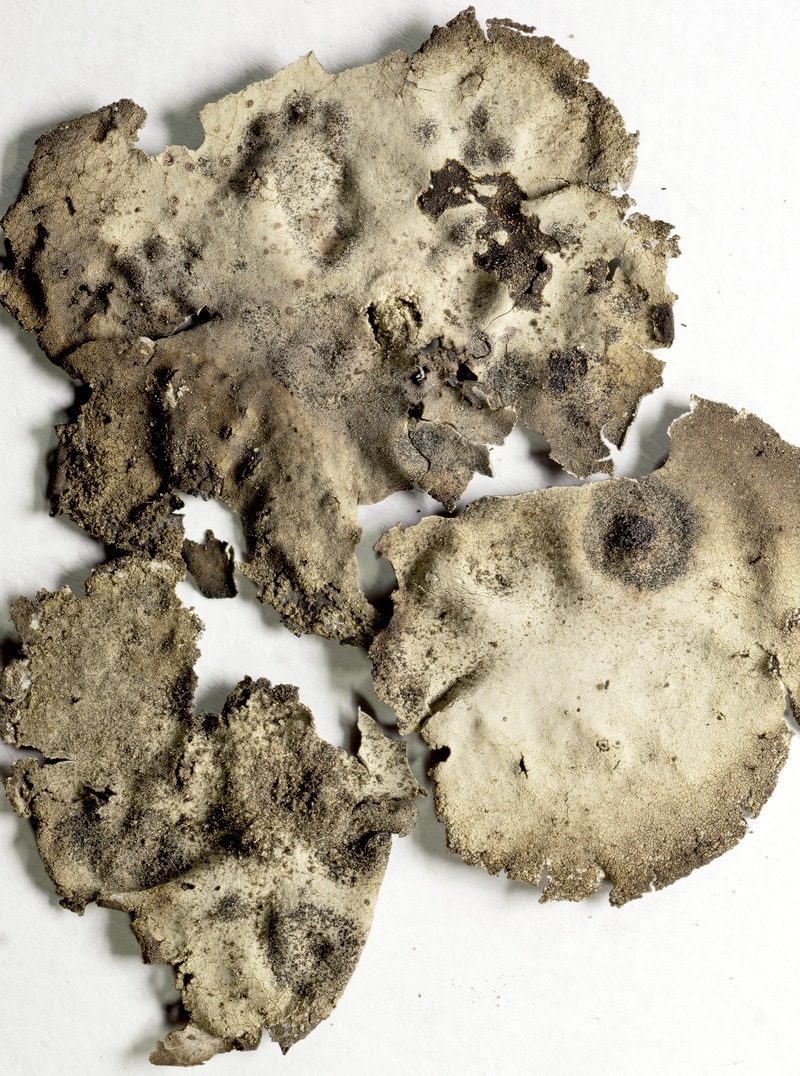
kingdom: Fungi
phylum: Ascomycota
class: Dothideomycetes
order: Microthyriales
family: Microthyriaceae
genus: Lichenopeltella
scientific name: Lichenopeltella maculans
